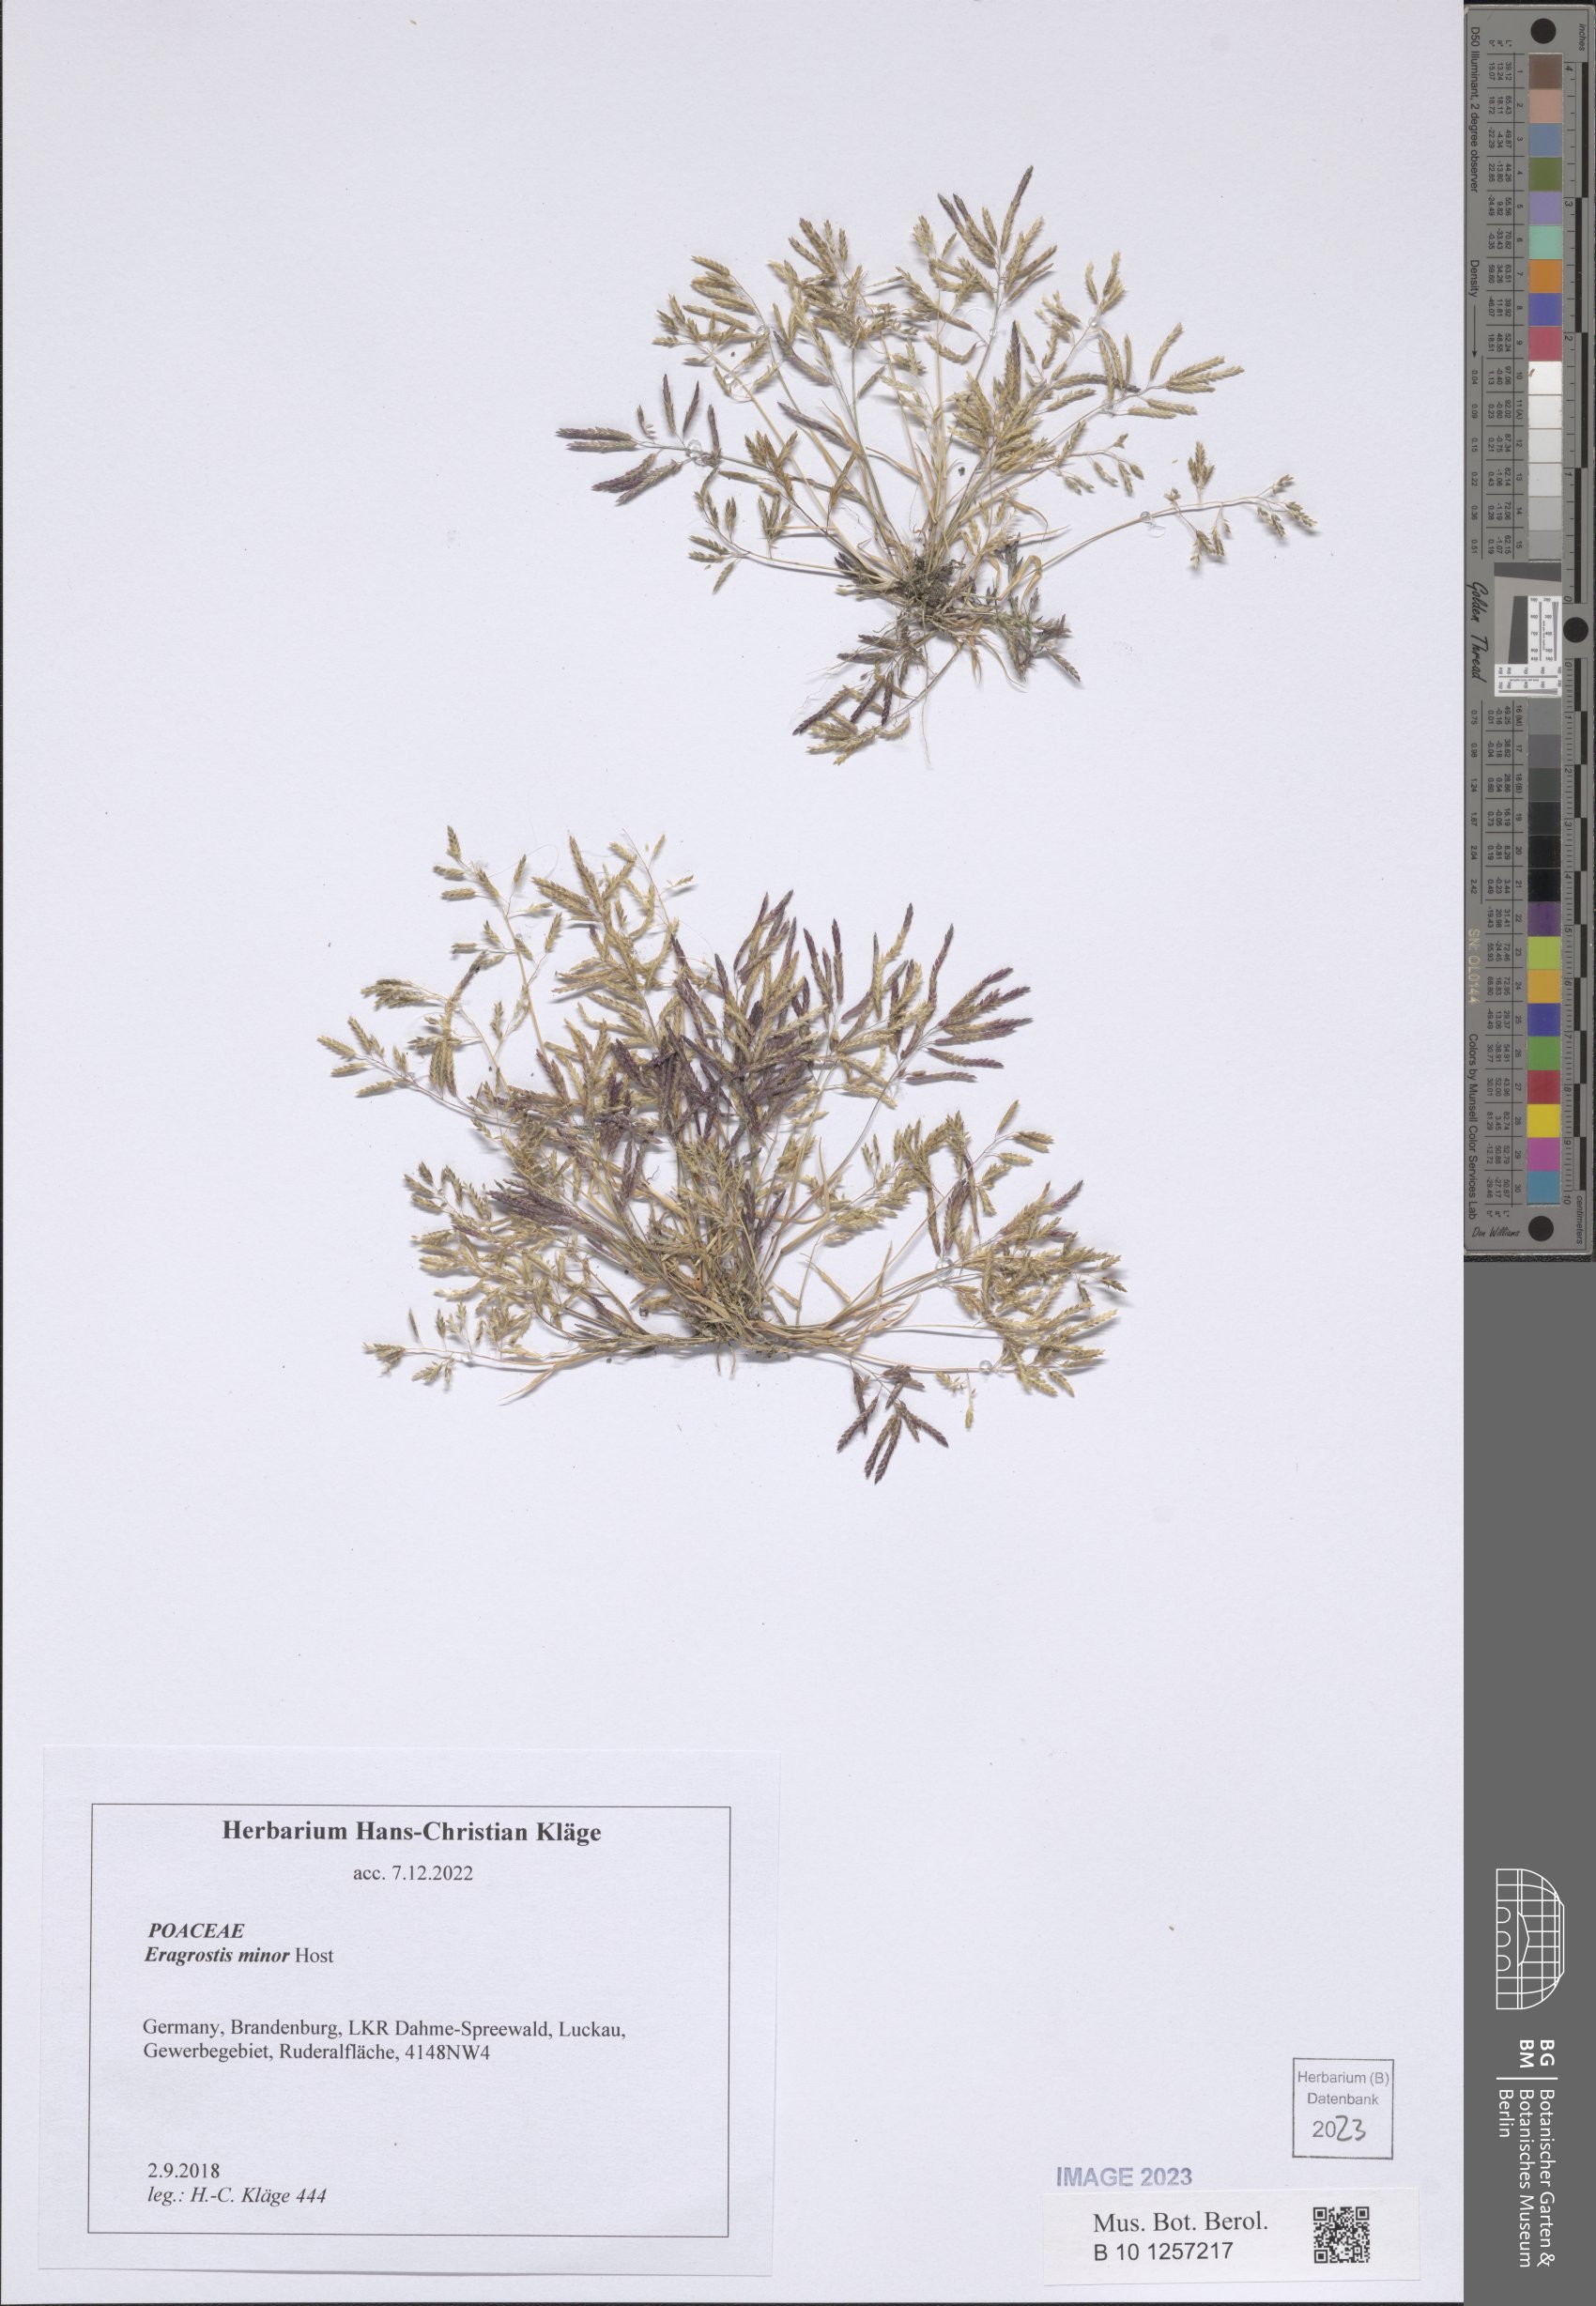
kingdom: Plantae
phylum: Tracheophyta
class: Liliopsida
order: Poales
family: Poaceae
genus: Eragrostis
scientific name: Eragrostis minor
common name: Small love-grass
